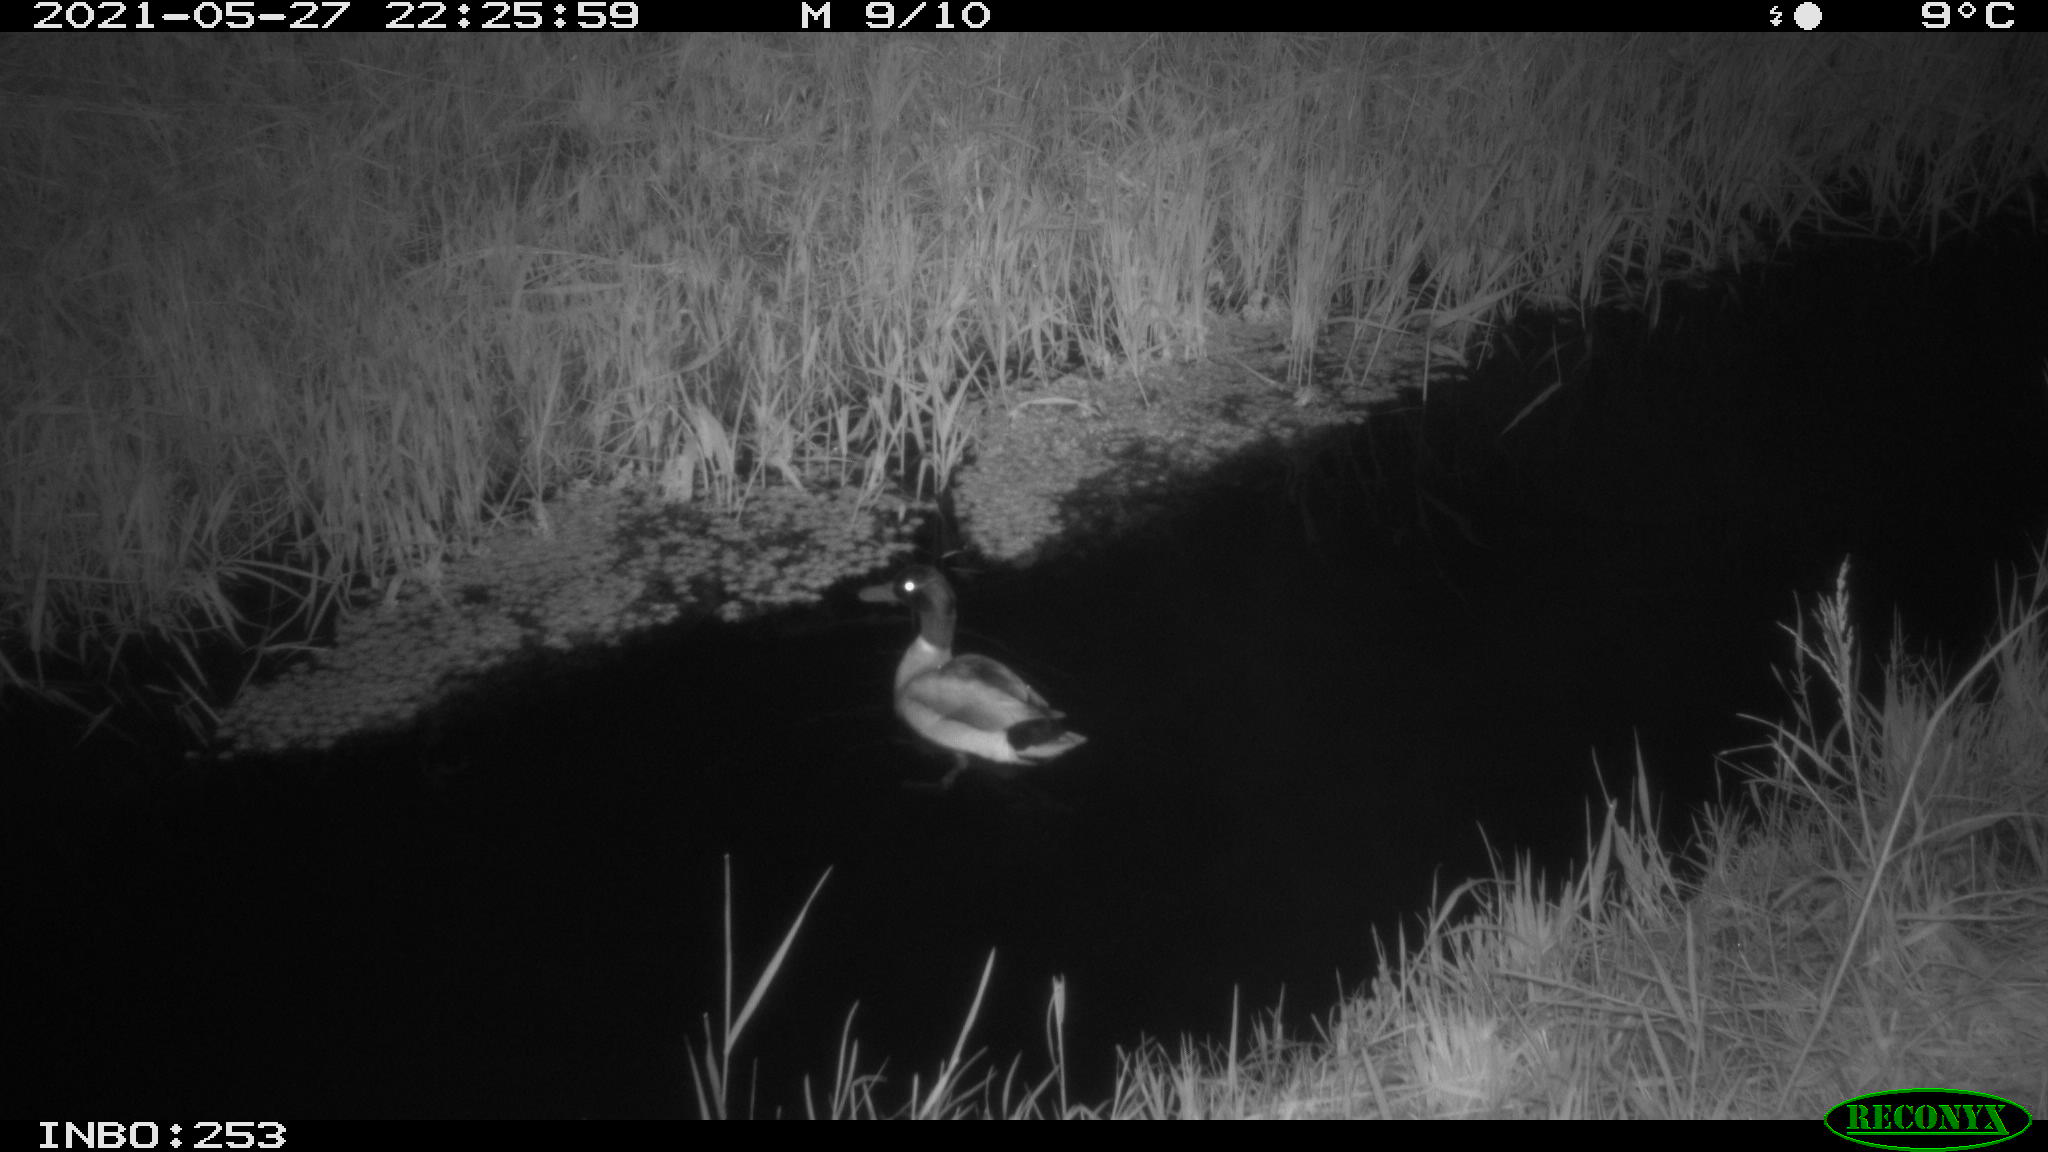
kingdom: Animalia
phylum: Chordata
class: Aves
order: Anseriformes
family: Anatidae
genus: Anas
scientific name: Anas
